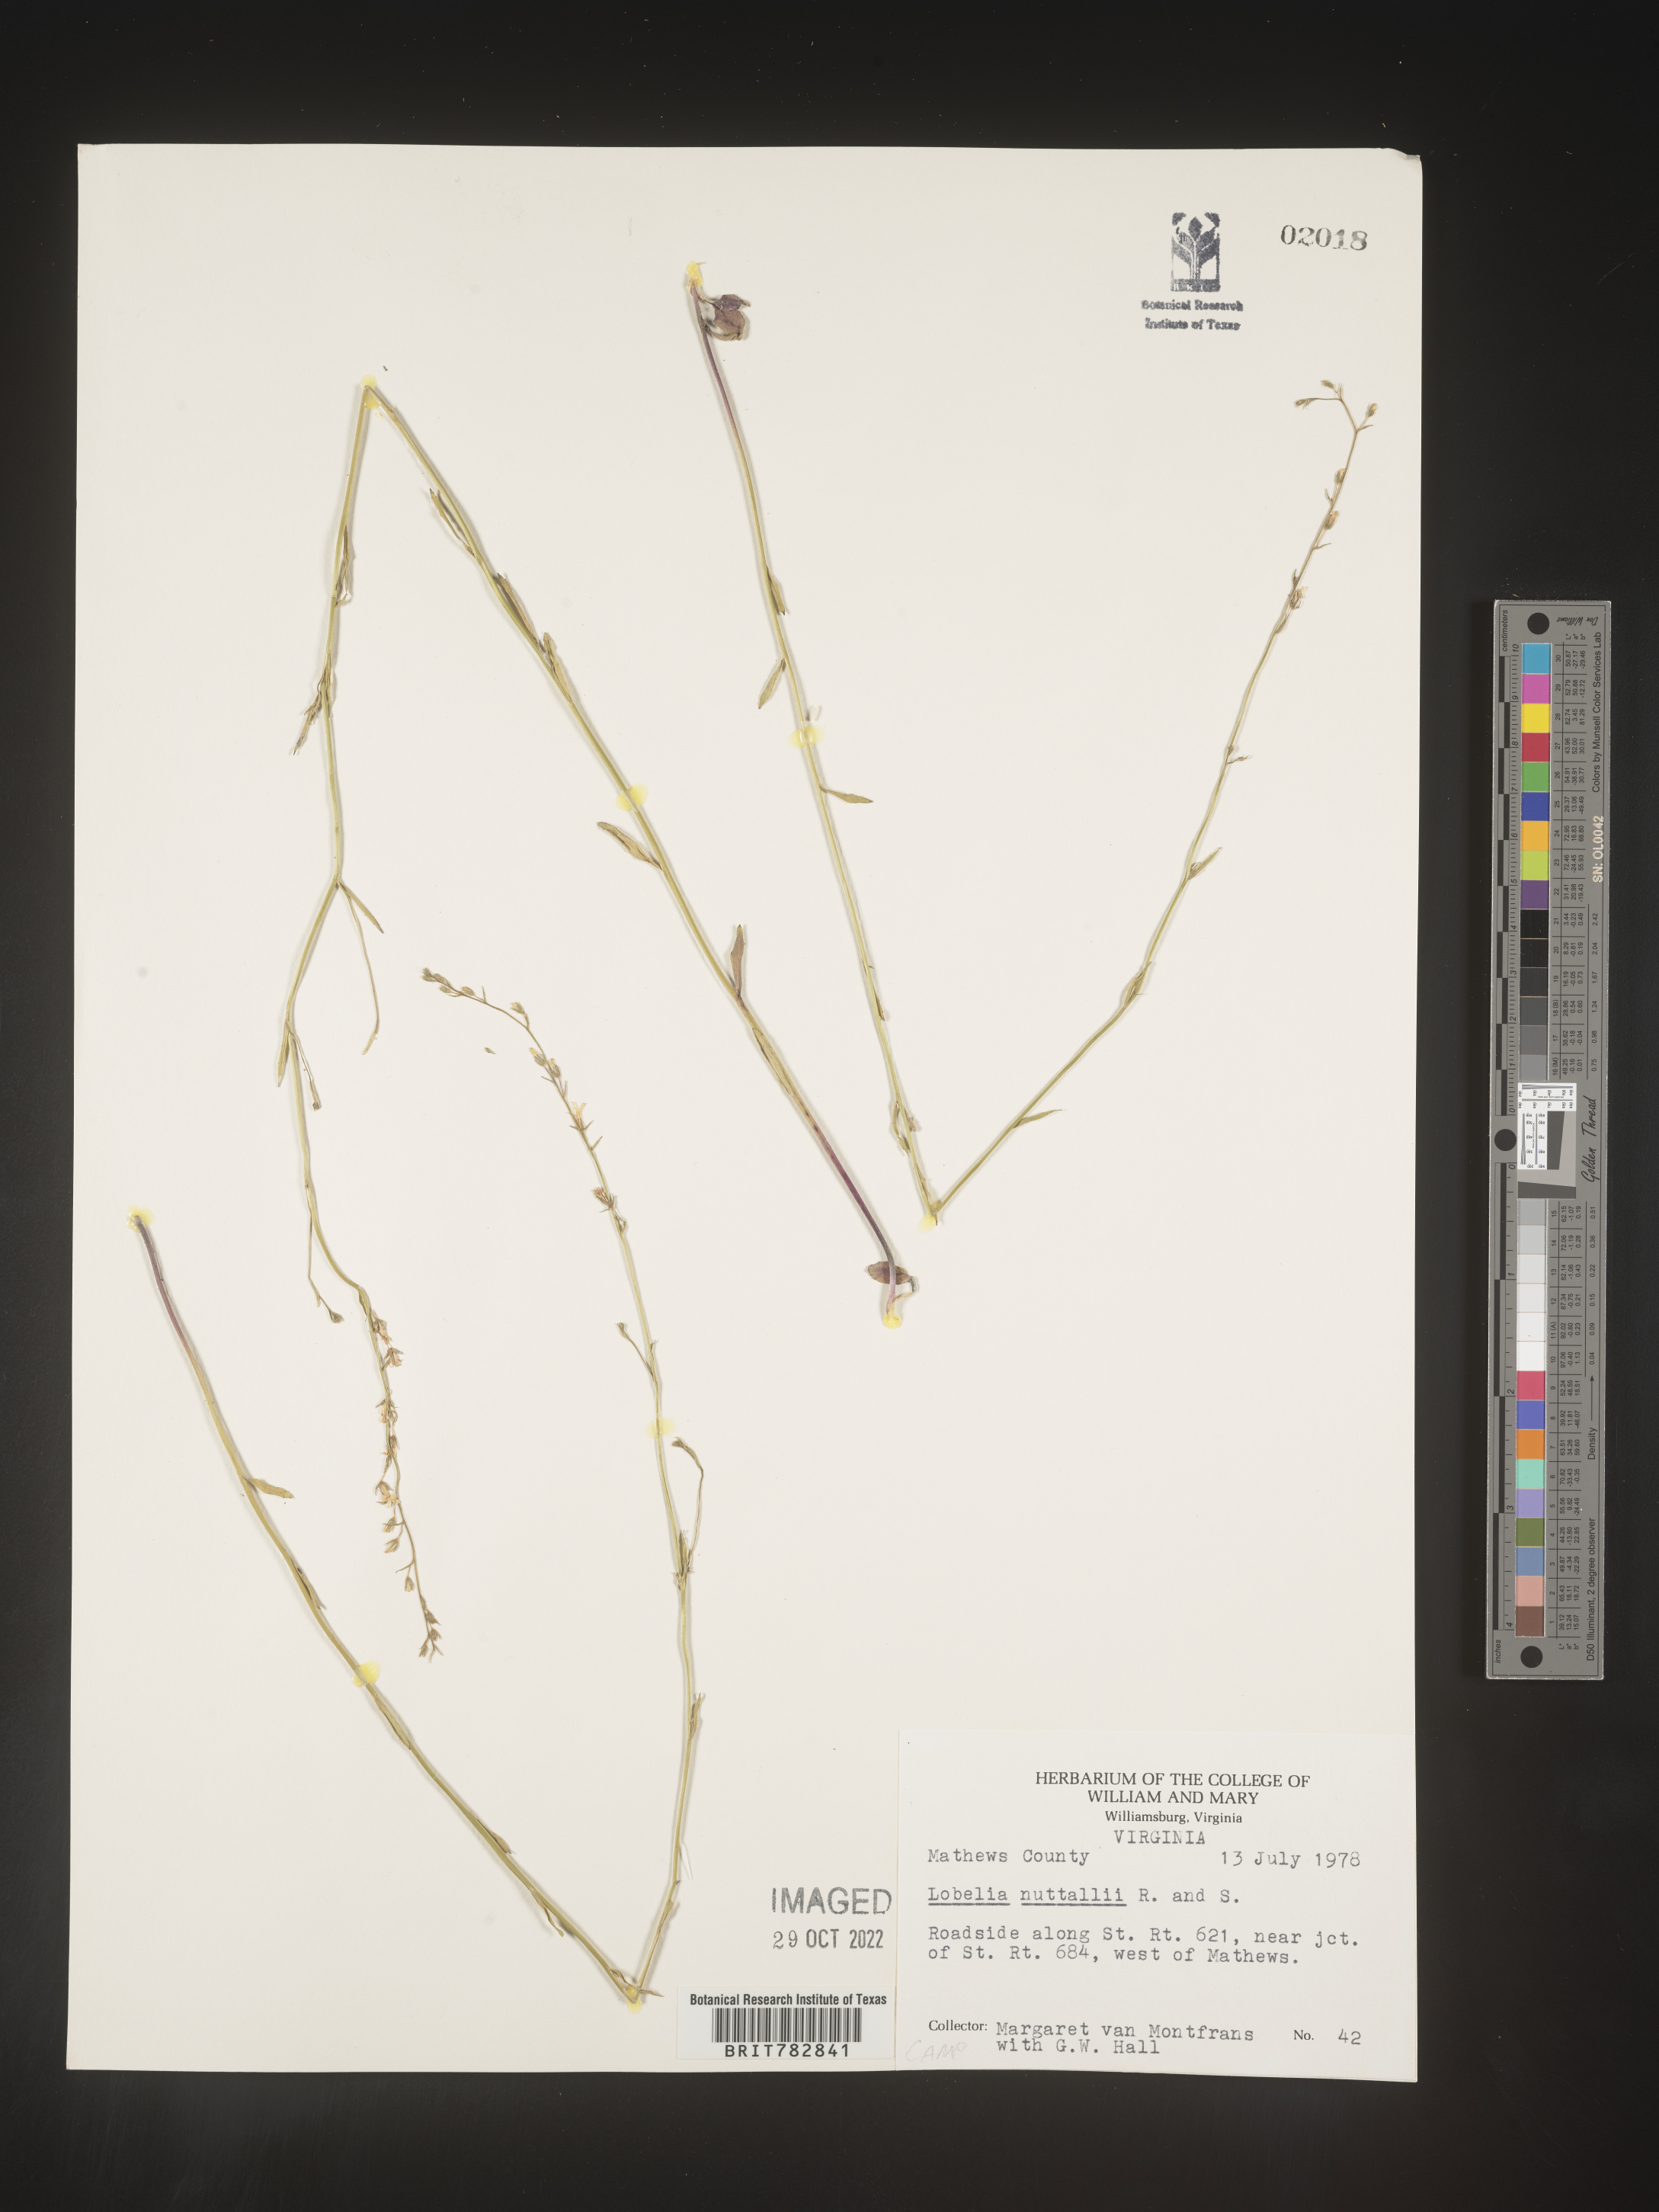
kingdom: Plantae
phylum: Tracheophyta
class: Magnoliopsida
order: Asterales
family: Campanulaceae
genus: Lobelia
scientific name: Lobelia nuttallii
